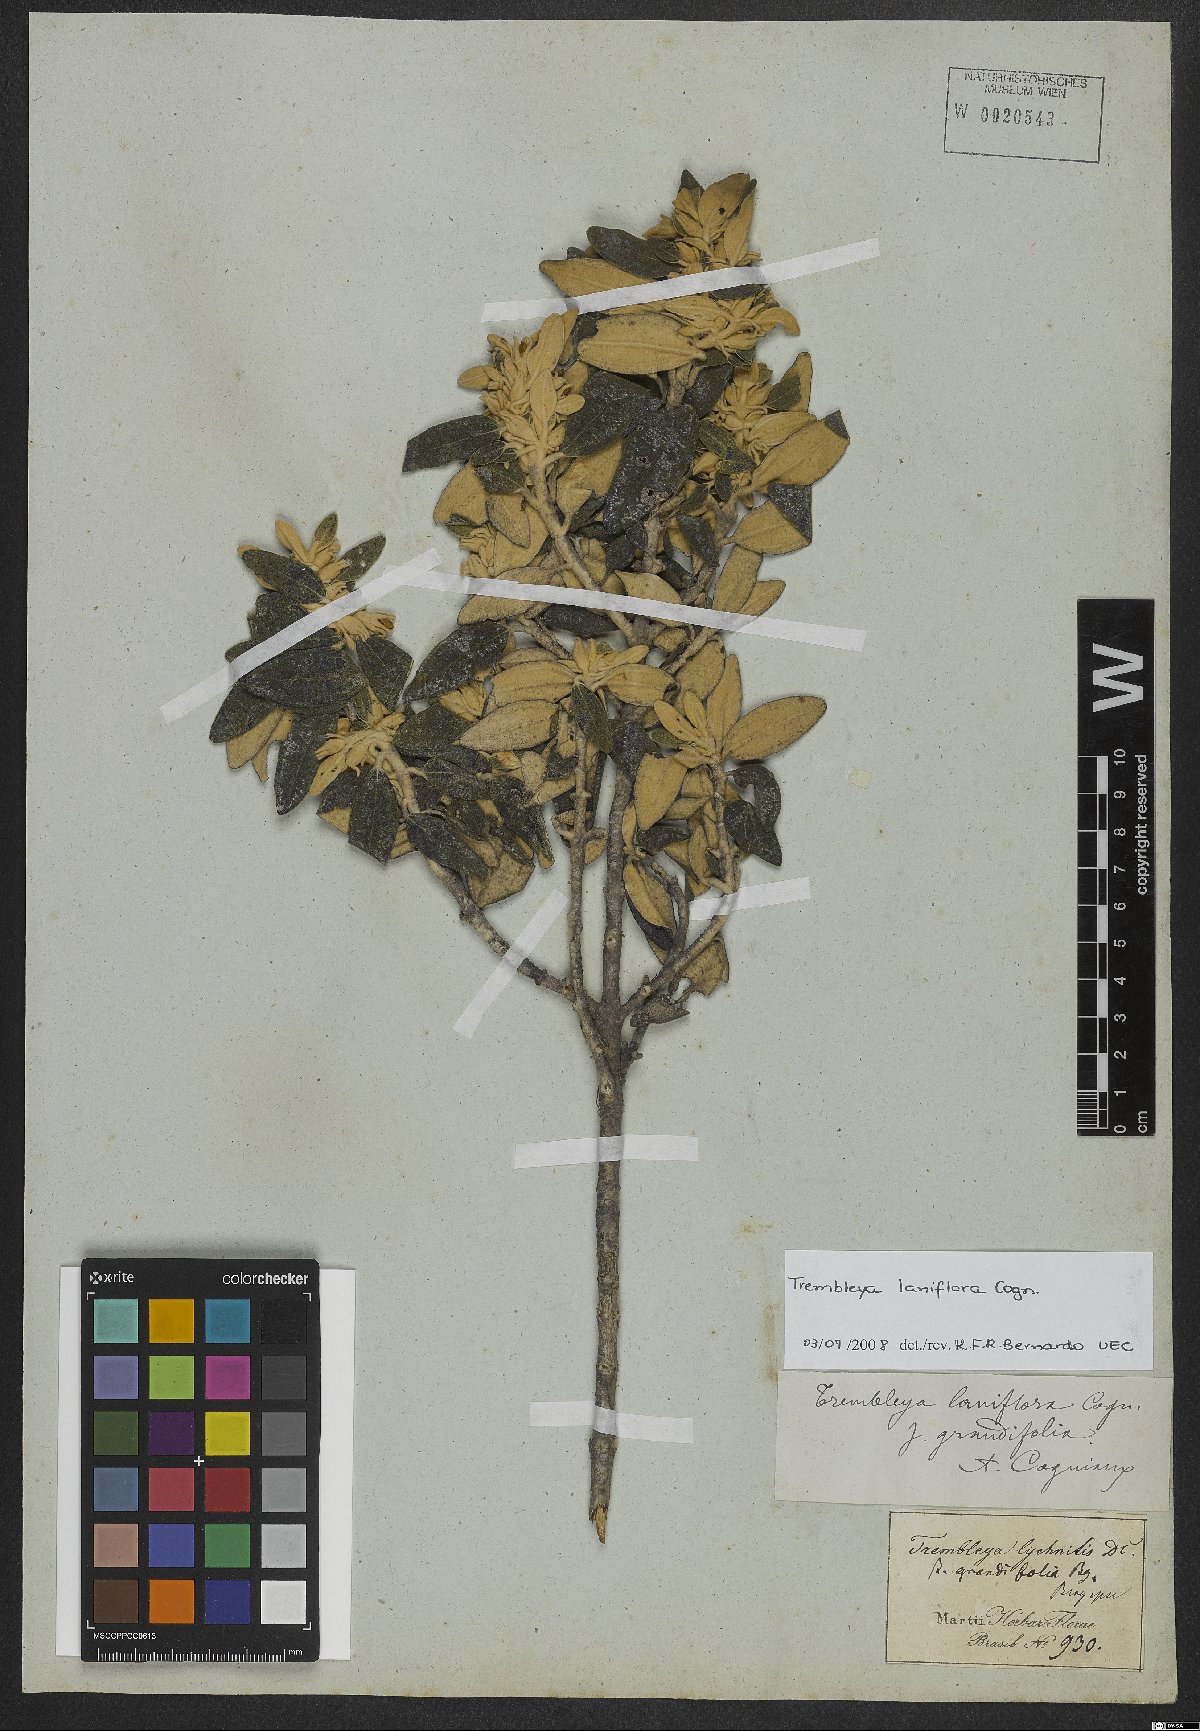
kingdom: Plantae
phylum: Tracheophyta
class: Magnoliopsida
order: Myrtales
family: Melastomataceae
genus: Microlicia
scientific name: Microlicia laniflora
